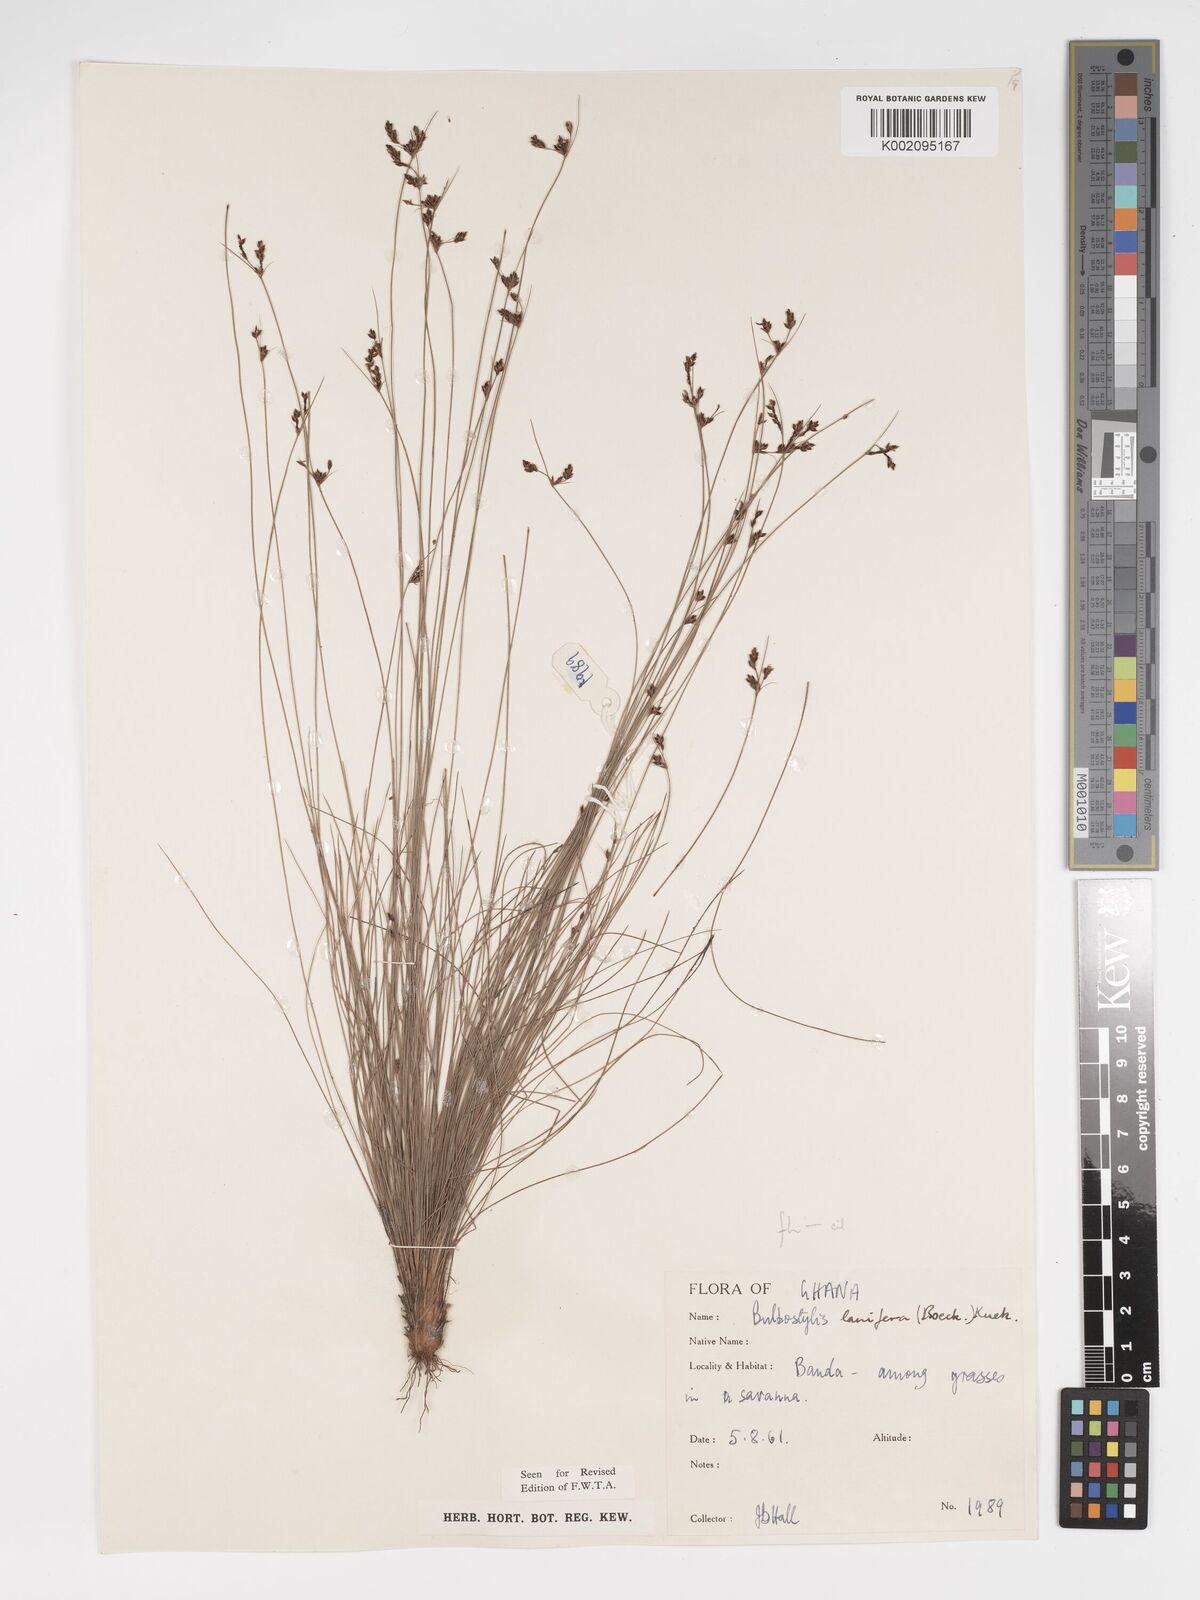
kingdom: Plantae
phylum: Tracheophyta
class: Liliopsida
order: Poales
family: Cyperaceae
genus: Bulbostylis
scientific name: Bulbostylis lanifera
